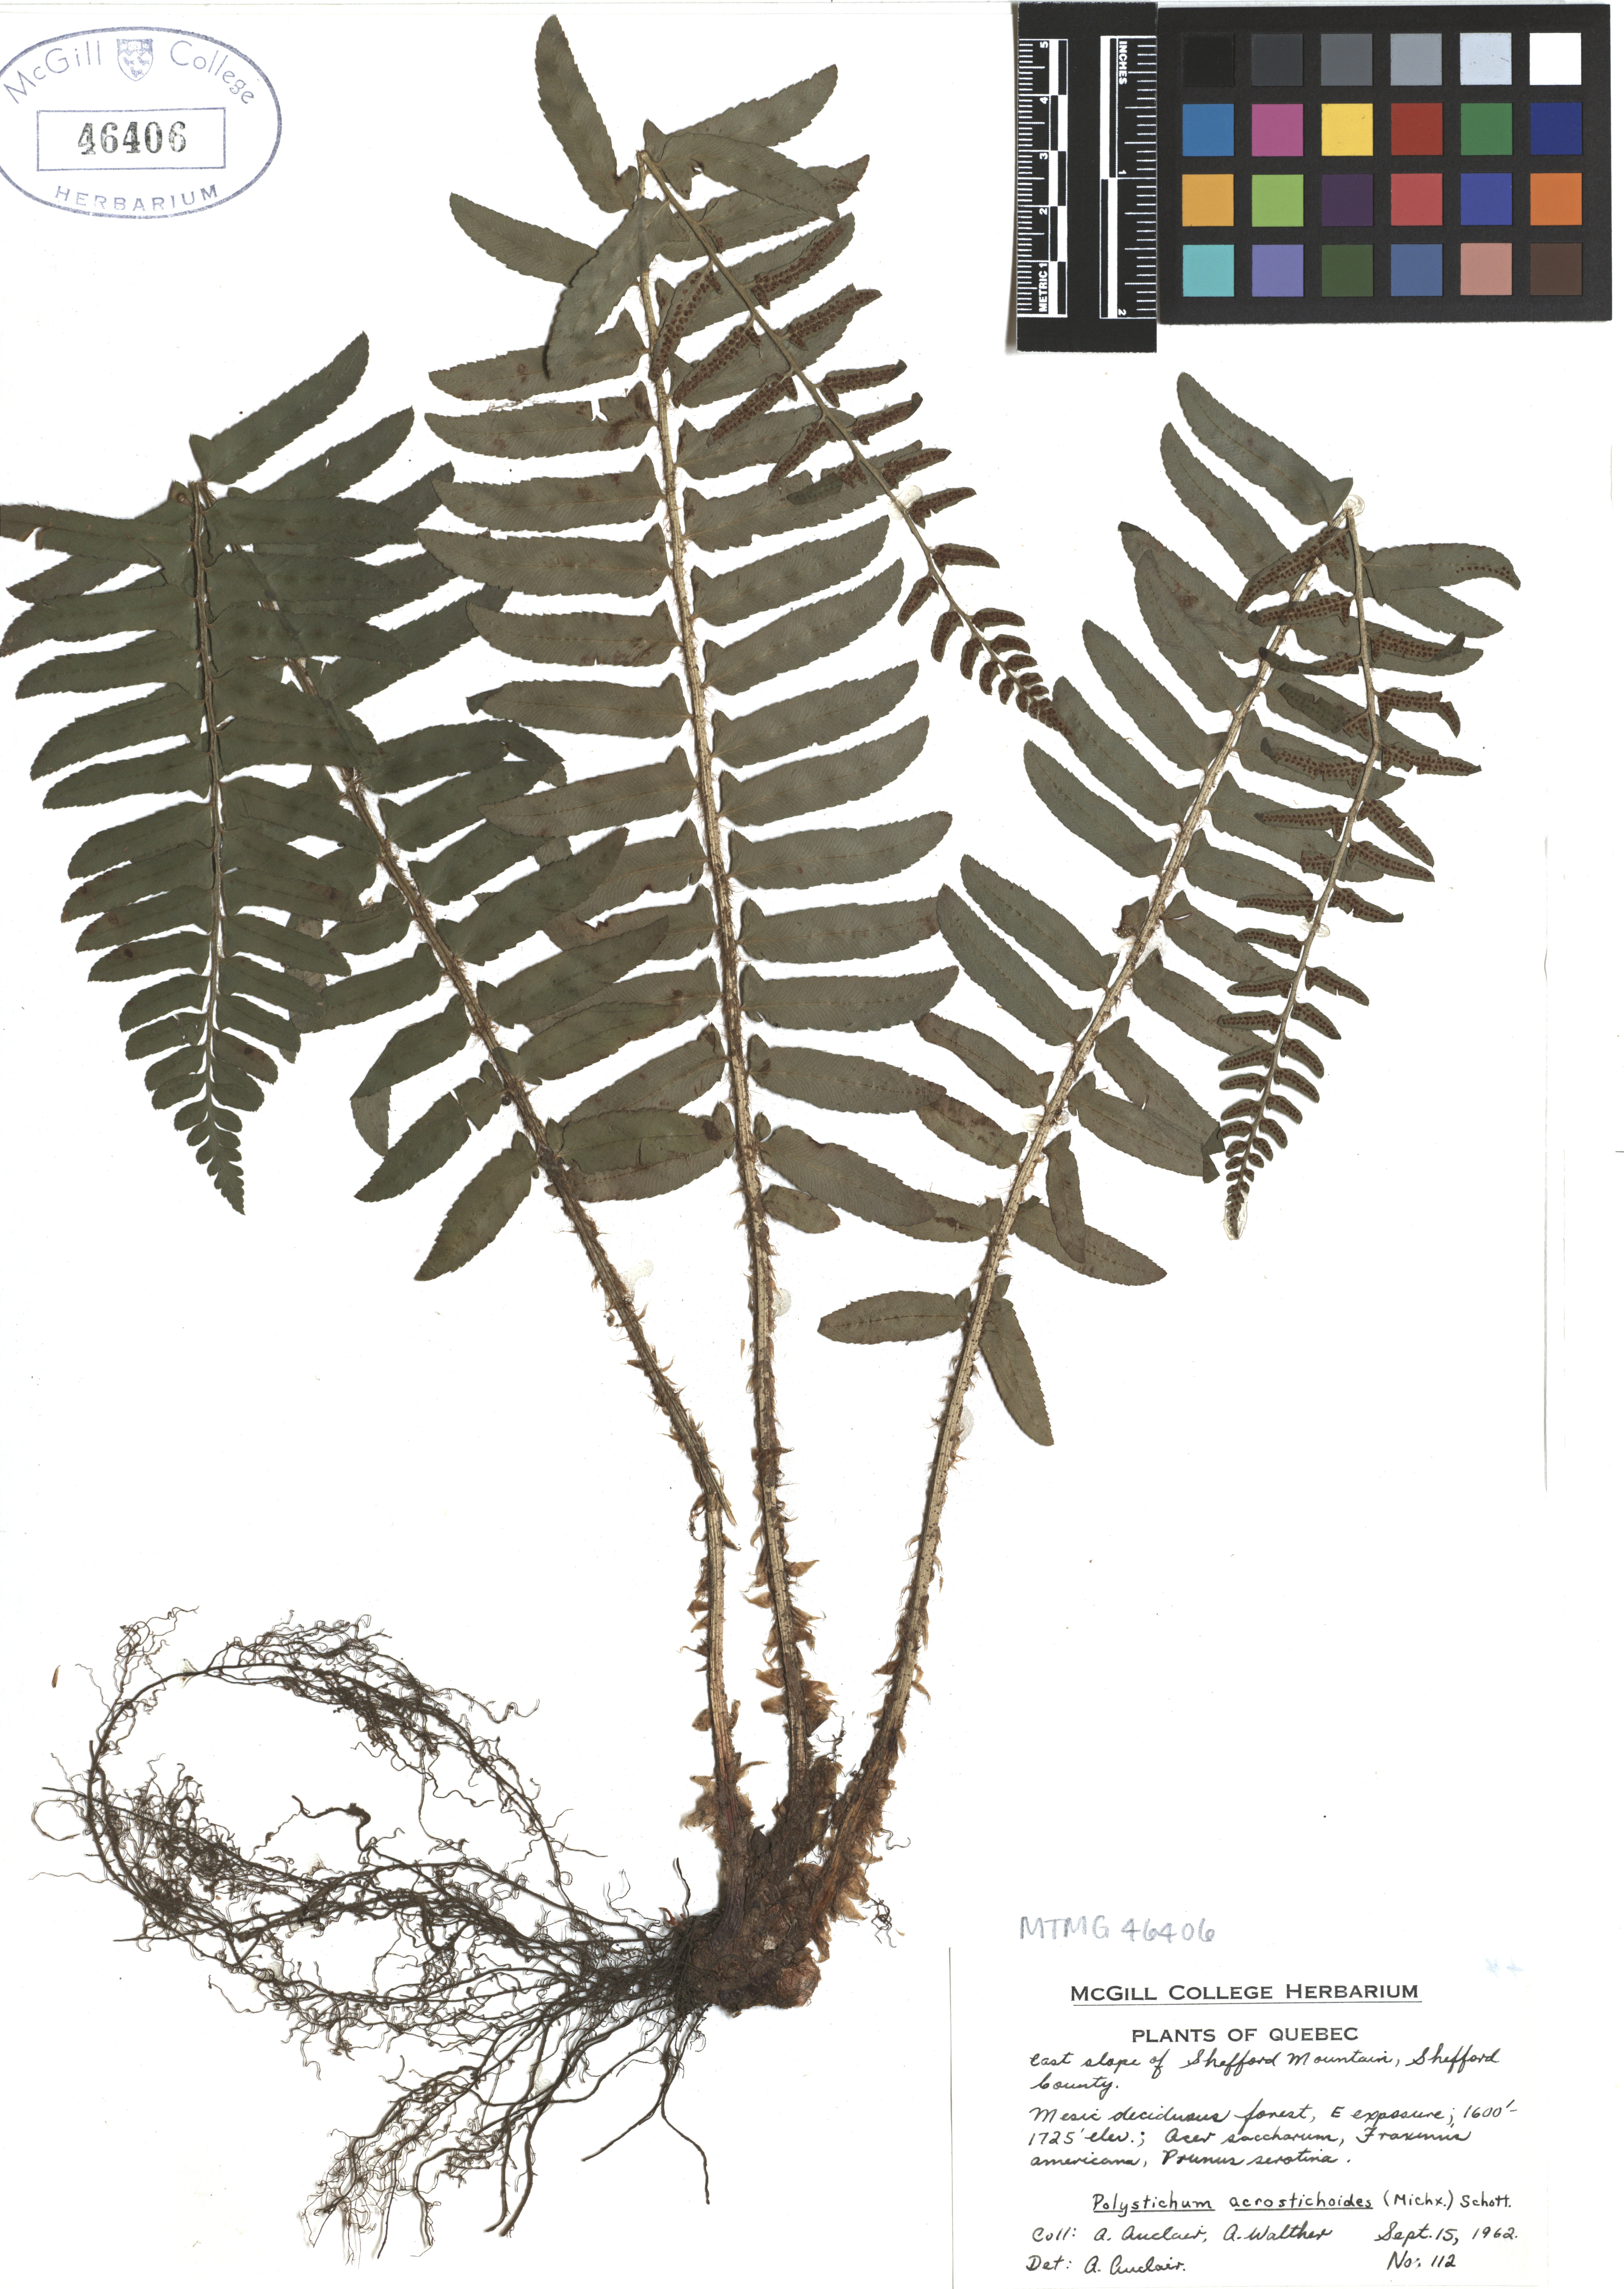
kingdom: Plantae
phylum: Tracheophyta
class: Polypodiopsida
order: Polypodiales
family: Dryopteridaceae
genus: Polystichum
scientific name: Polystichum acrostichoides
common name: Christmas fern
